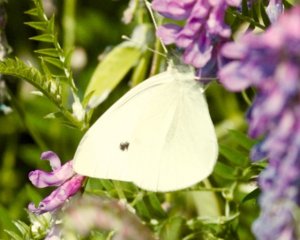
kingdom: Animalia
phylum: Arthropoda
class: Insecta
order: Lepidoptera
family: Pieridae
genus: Pieris
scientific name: Pieris rapae
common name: Cabbage White
